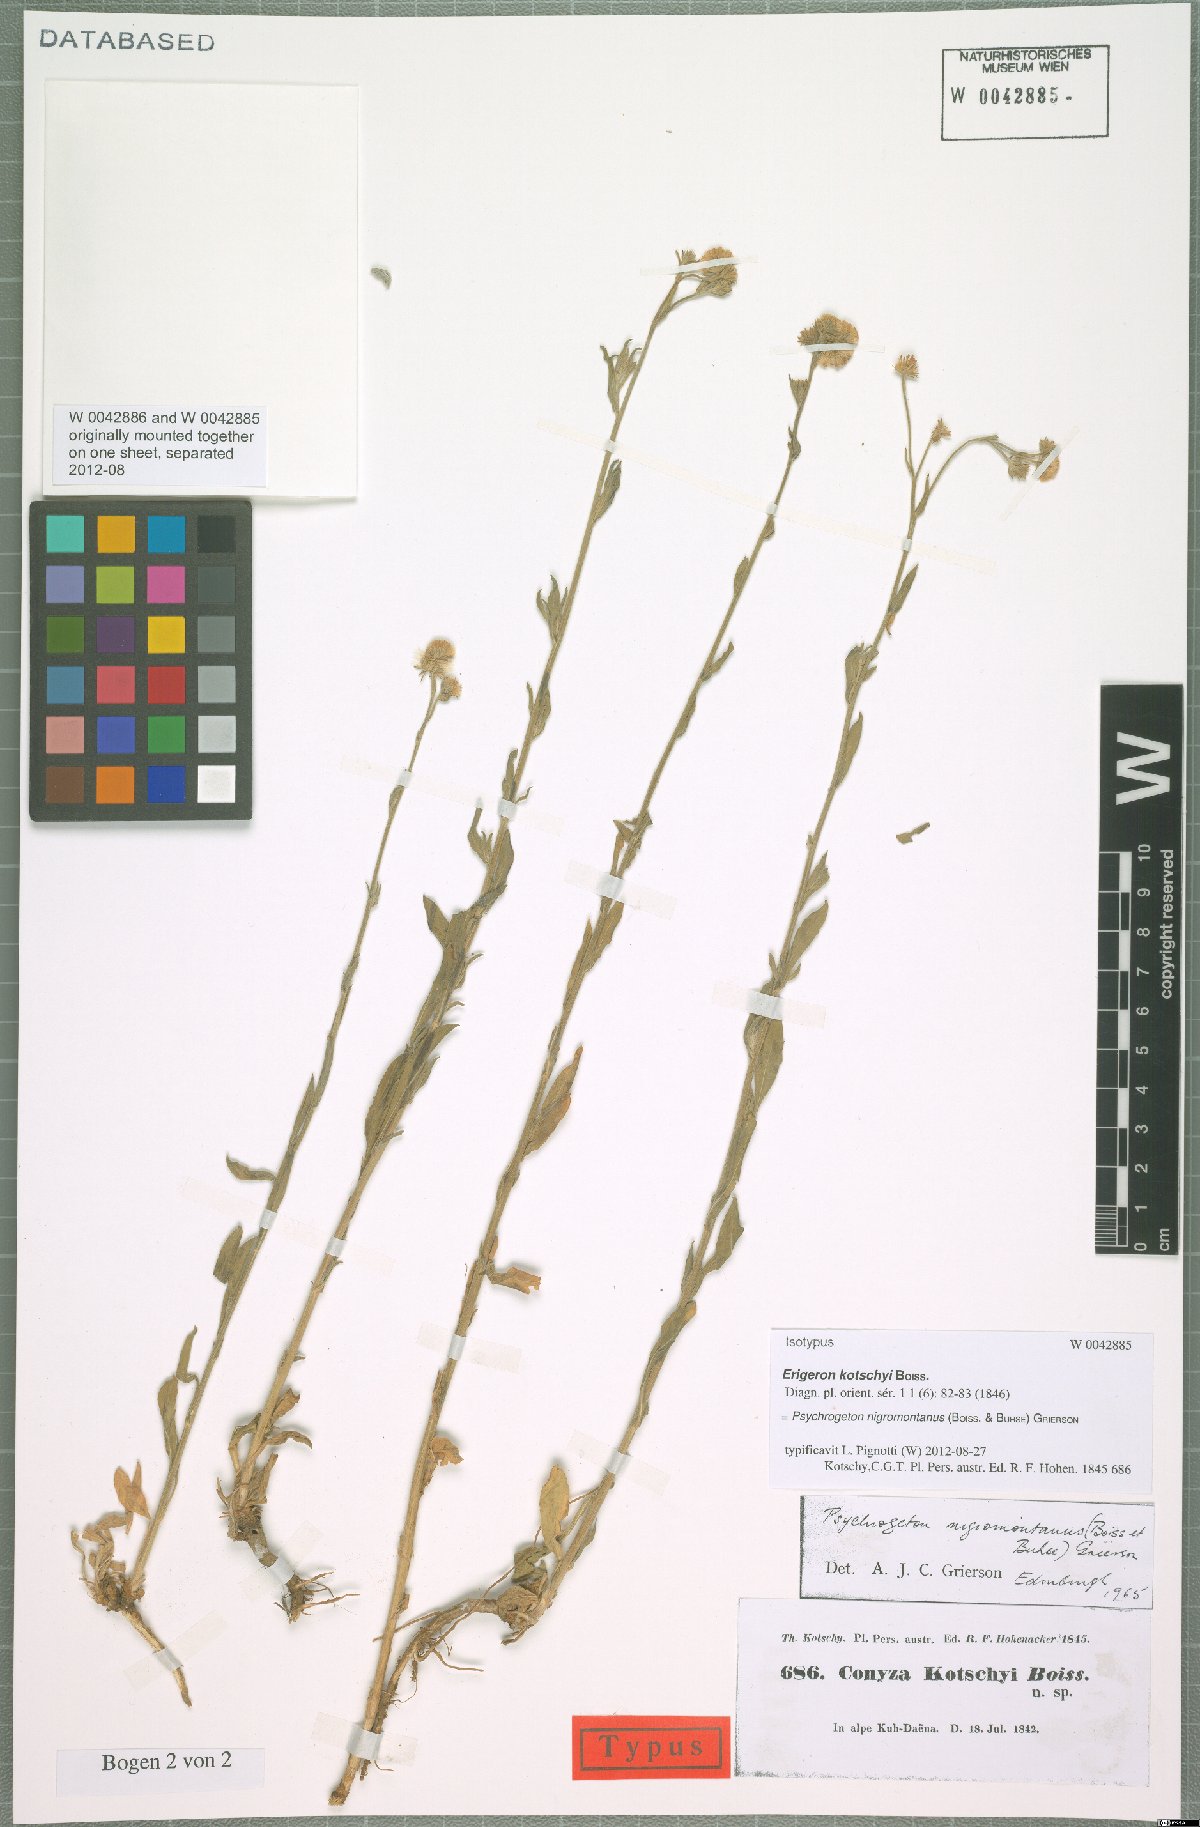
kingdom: Plantae
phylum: Tracheophyta
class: Magnoliopsida
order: Asterales
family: Asteraceae
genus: Psychrogeton
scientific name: Psychrogeton nigromontanus
